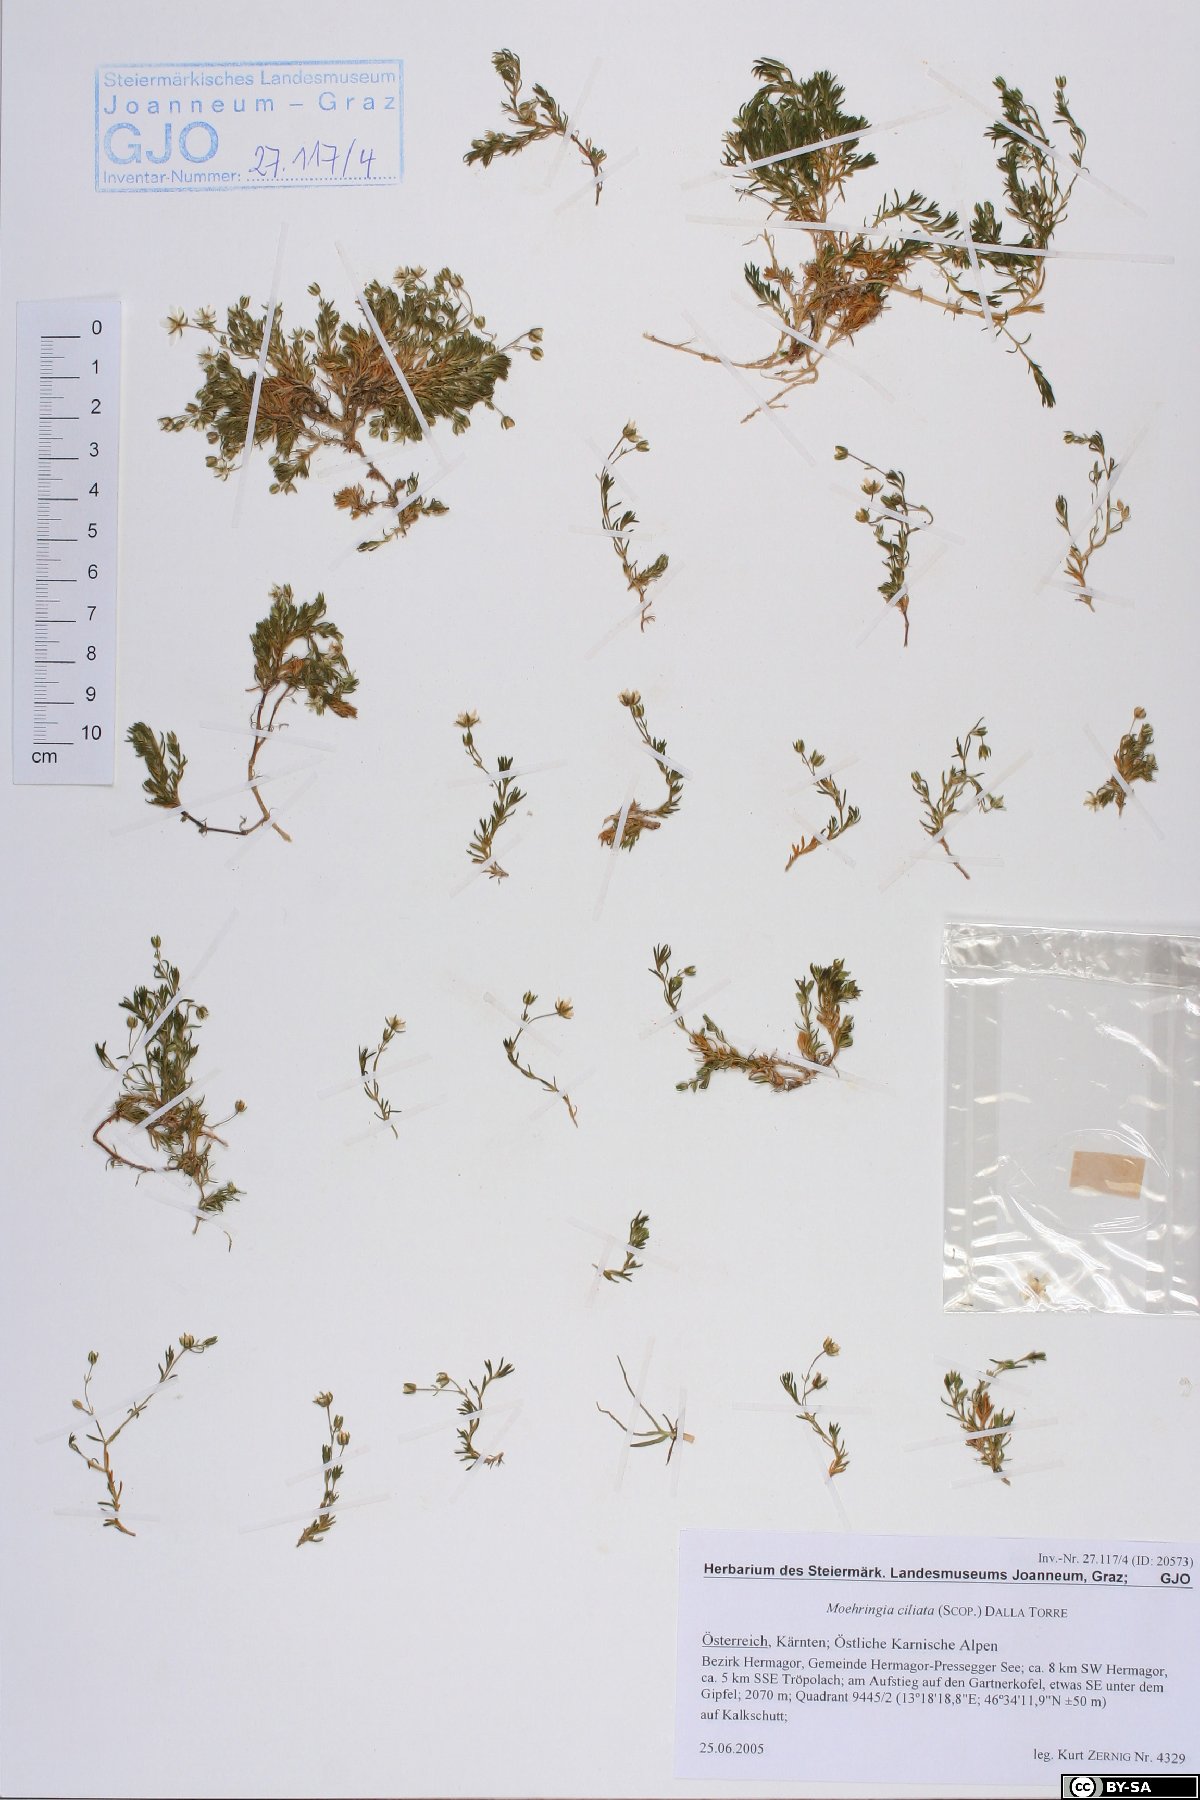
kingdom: Plantae
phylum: Tracheophyta
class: Magnoliopsida
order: Caryophyllales
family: Caryophyllaceae
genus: Moehringia
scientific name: Moehringia ciliata
